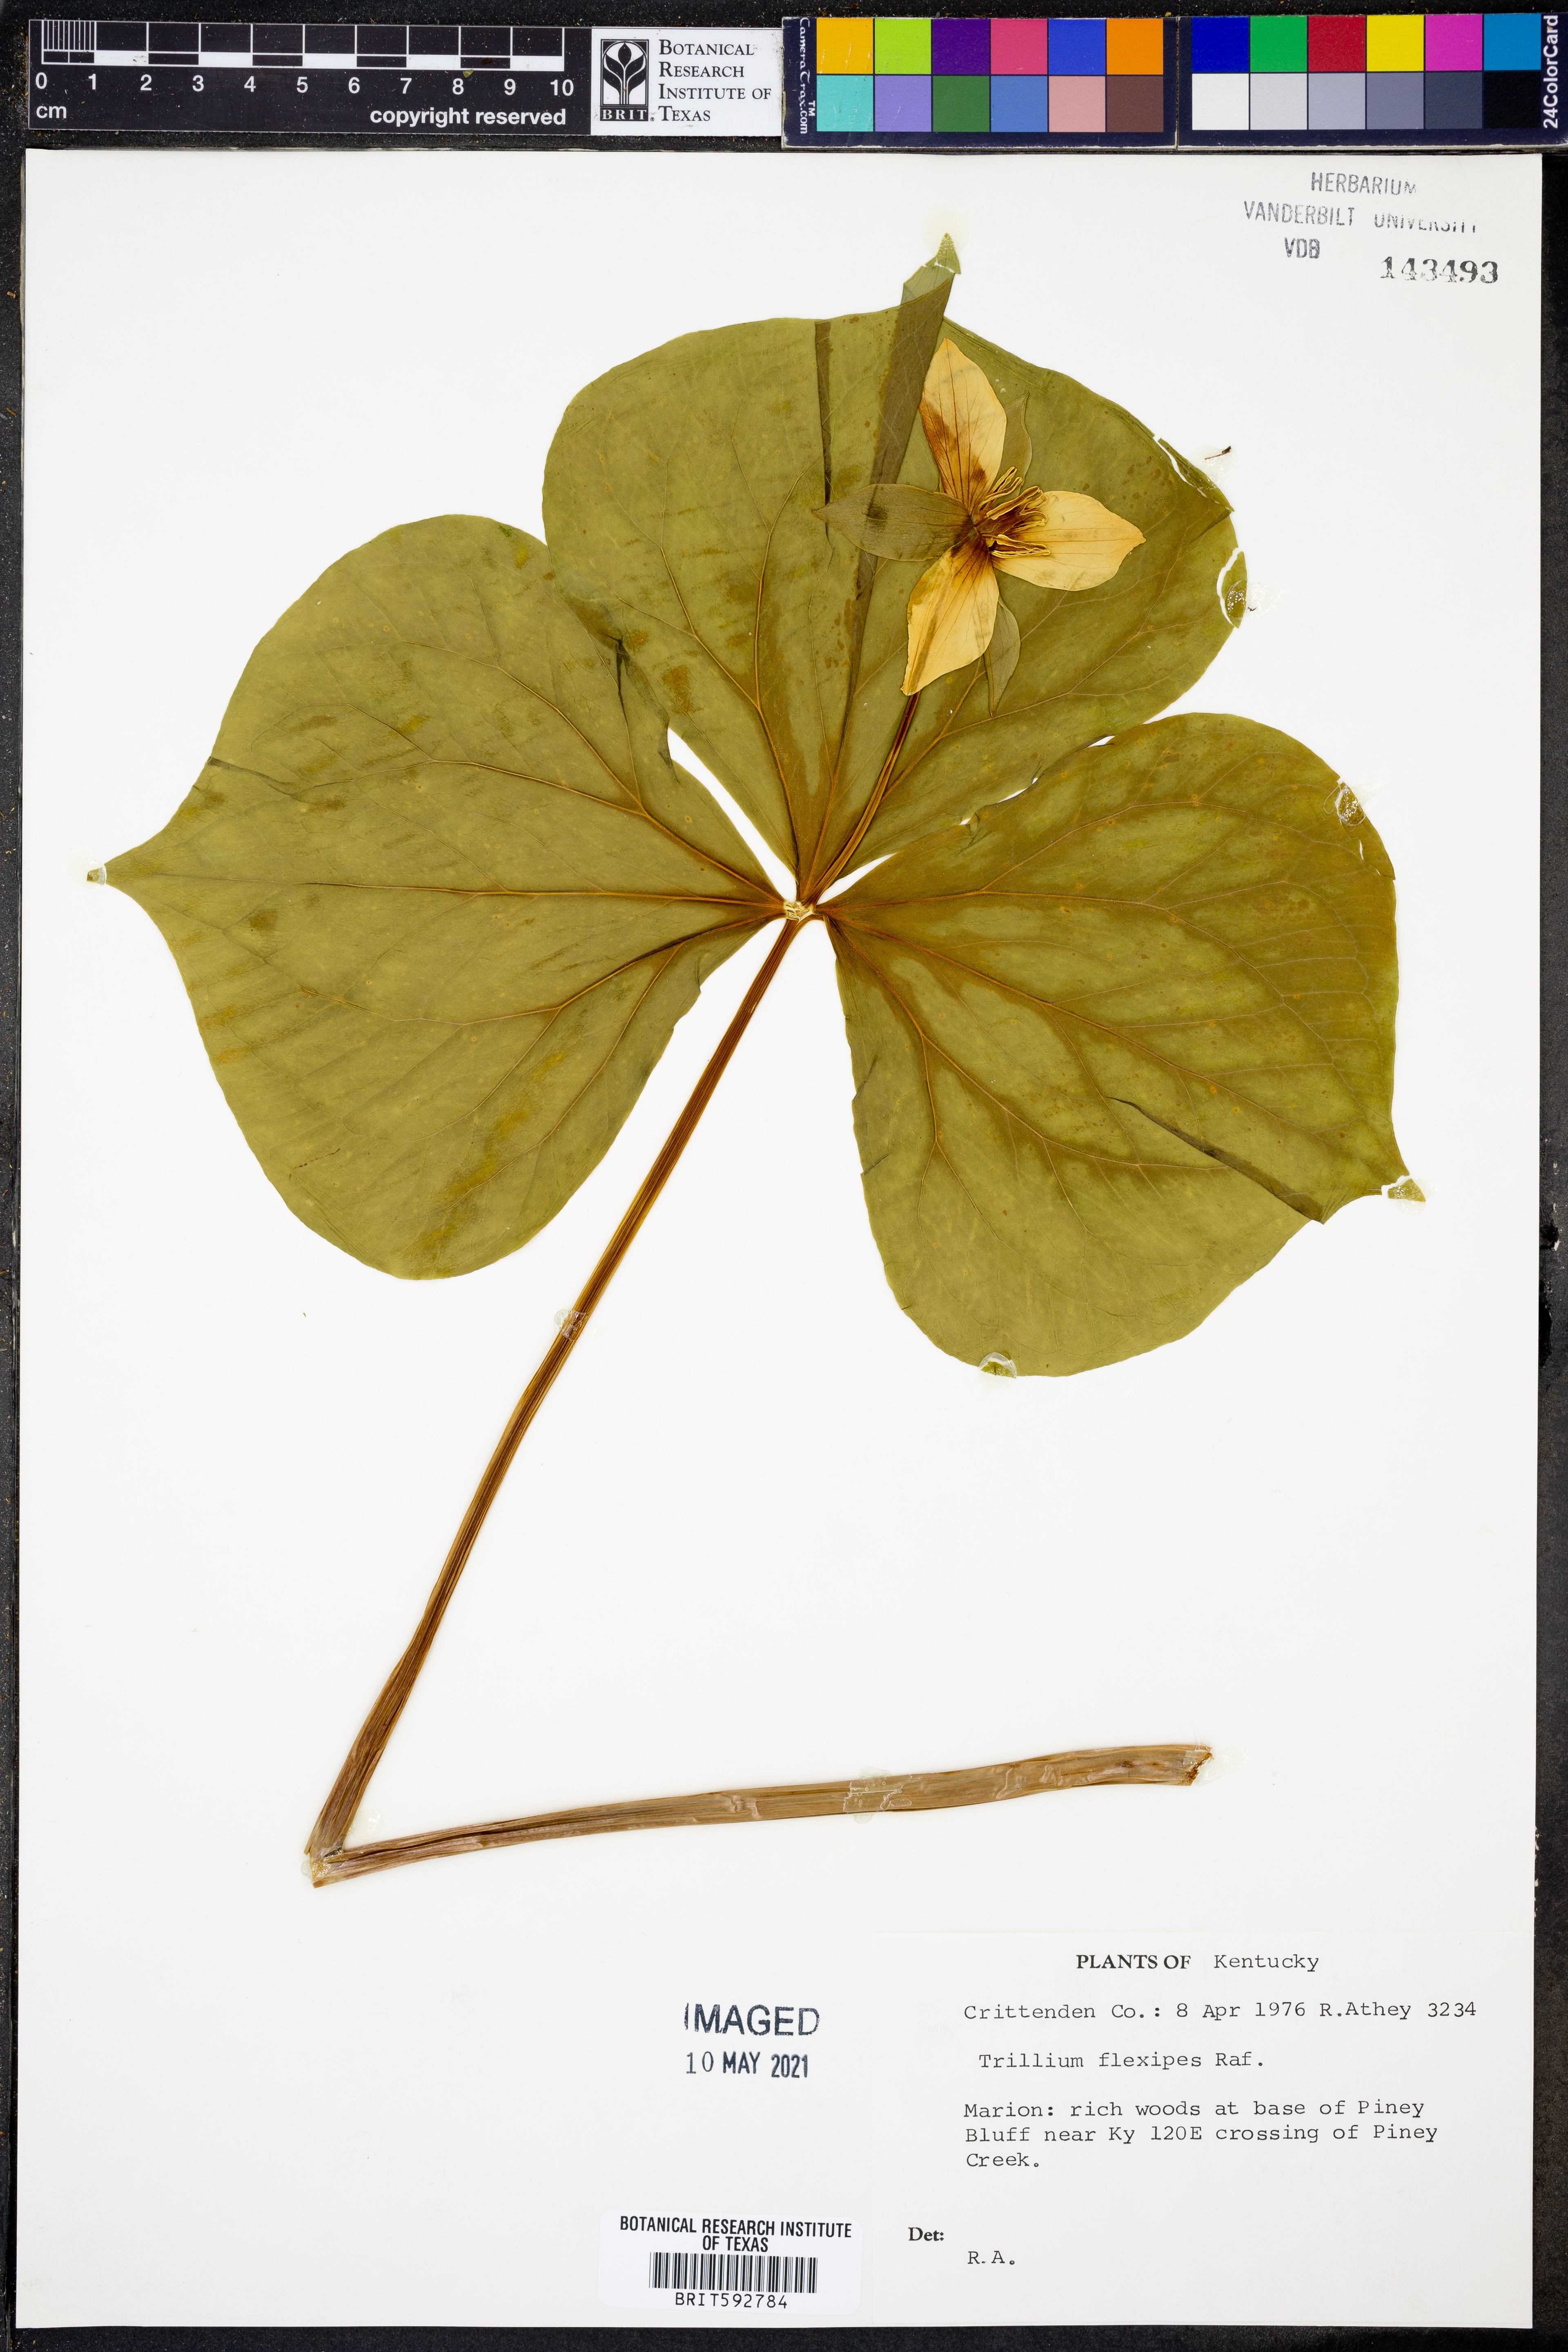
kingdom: Plantae
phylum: Tracheophyta
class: Liliopsida
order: Liliales
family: Melanthiaceae
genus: Trillium
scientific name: Trillium flexipes
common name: Drooping trillium
